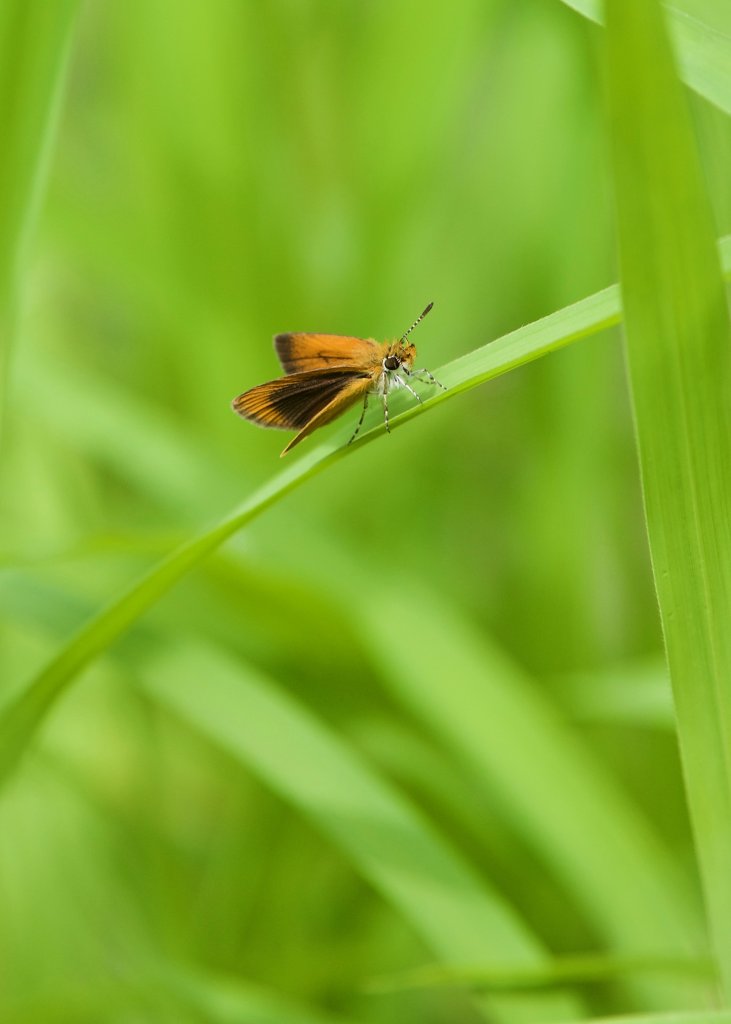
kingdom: Animalia
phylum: Arthropoda
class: Insecta
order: Lepidoptera
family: Hesperiidae
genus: Ancyloxypha
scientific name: Ancyloxypha numitor
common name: Least Skipper
